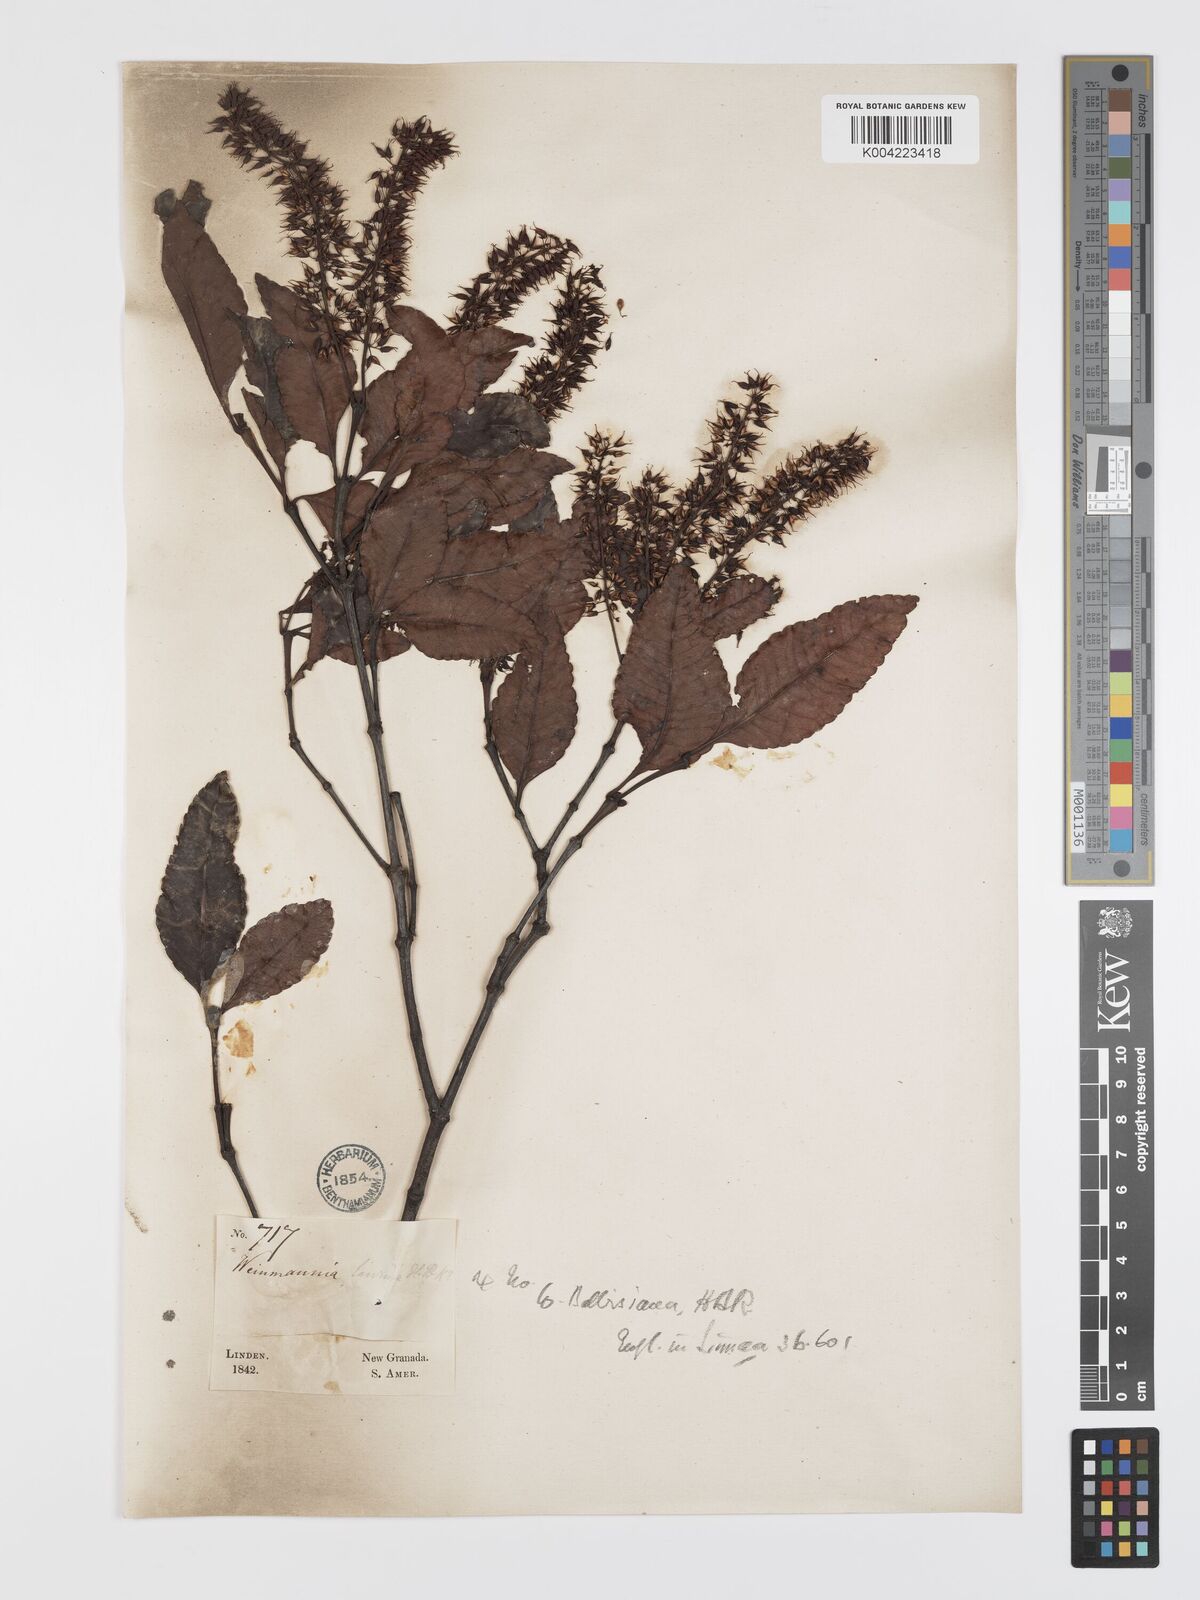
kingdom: Plantae
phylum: Tracheophyta
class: Magnoliopsida
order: Oxalidales
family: Cunoniaceae
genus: Weinmannia
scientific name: Weinmannia balbisana
